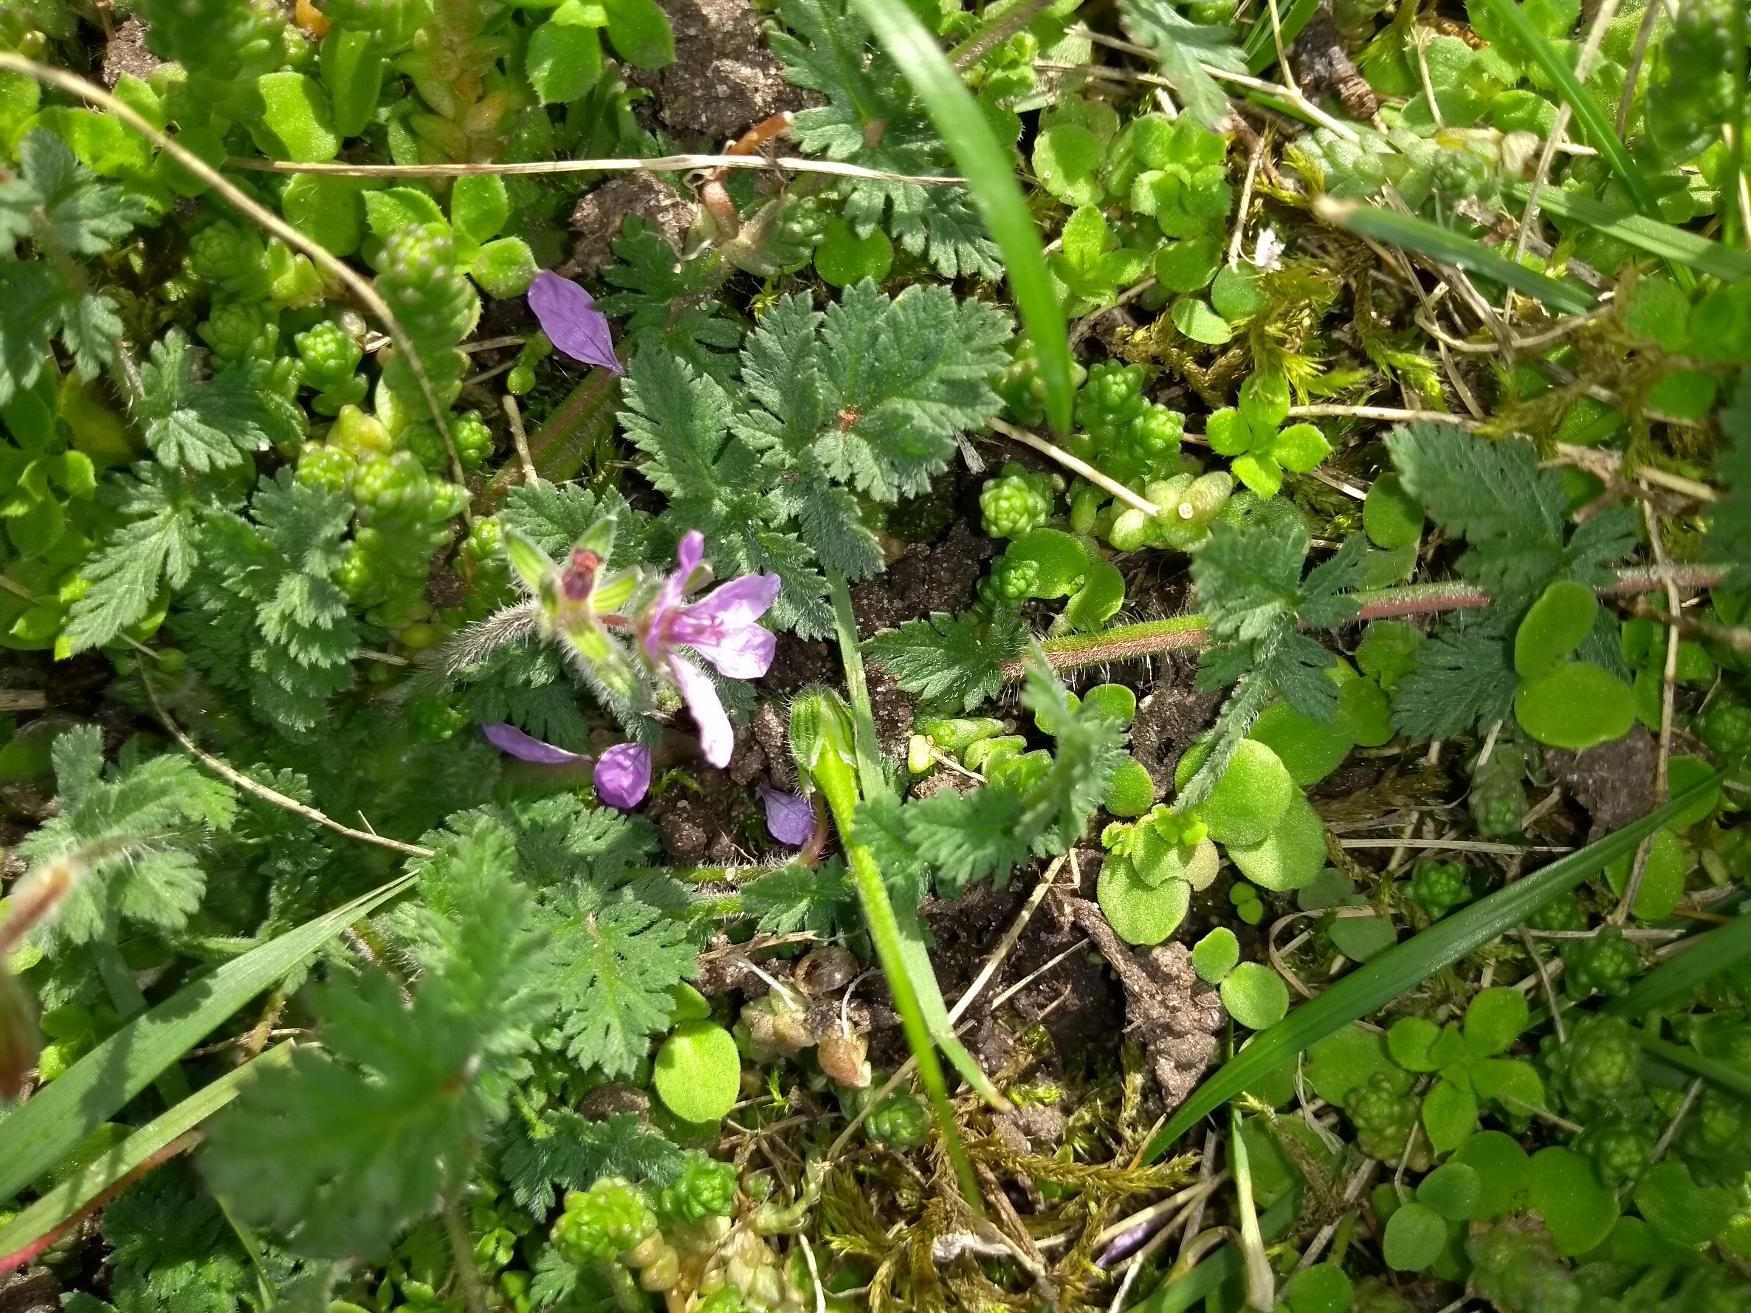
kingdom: Plantae
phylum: Tracheophyta
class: Magnoliopsida
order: Geraniales
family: Geraniaceae
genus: Erodium
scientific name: Erodium cicutarium
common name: Hejrenæb
